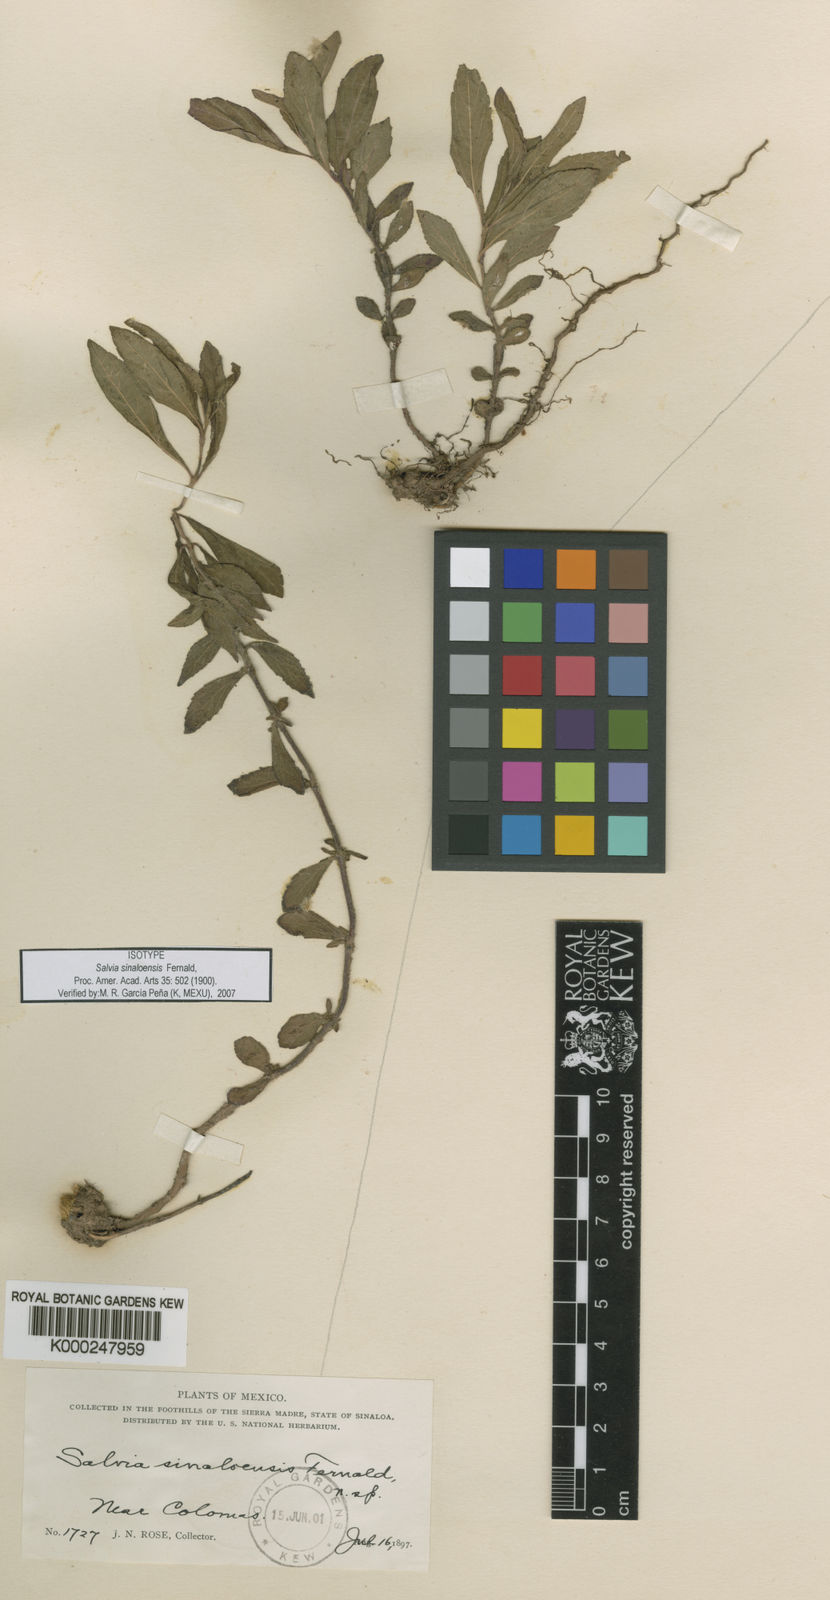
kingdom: Plantae
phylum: Tracheophyta
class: Magnoliopsida
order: Lamiales
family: Lamiaceae
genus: Salvia
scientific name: Salvia sinaloensis
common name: Sinaloa sage
